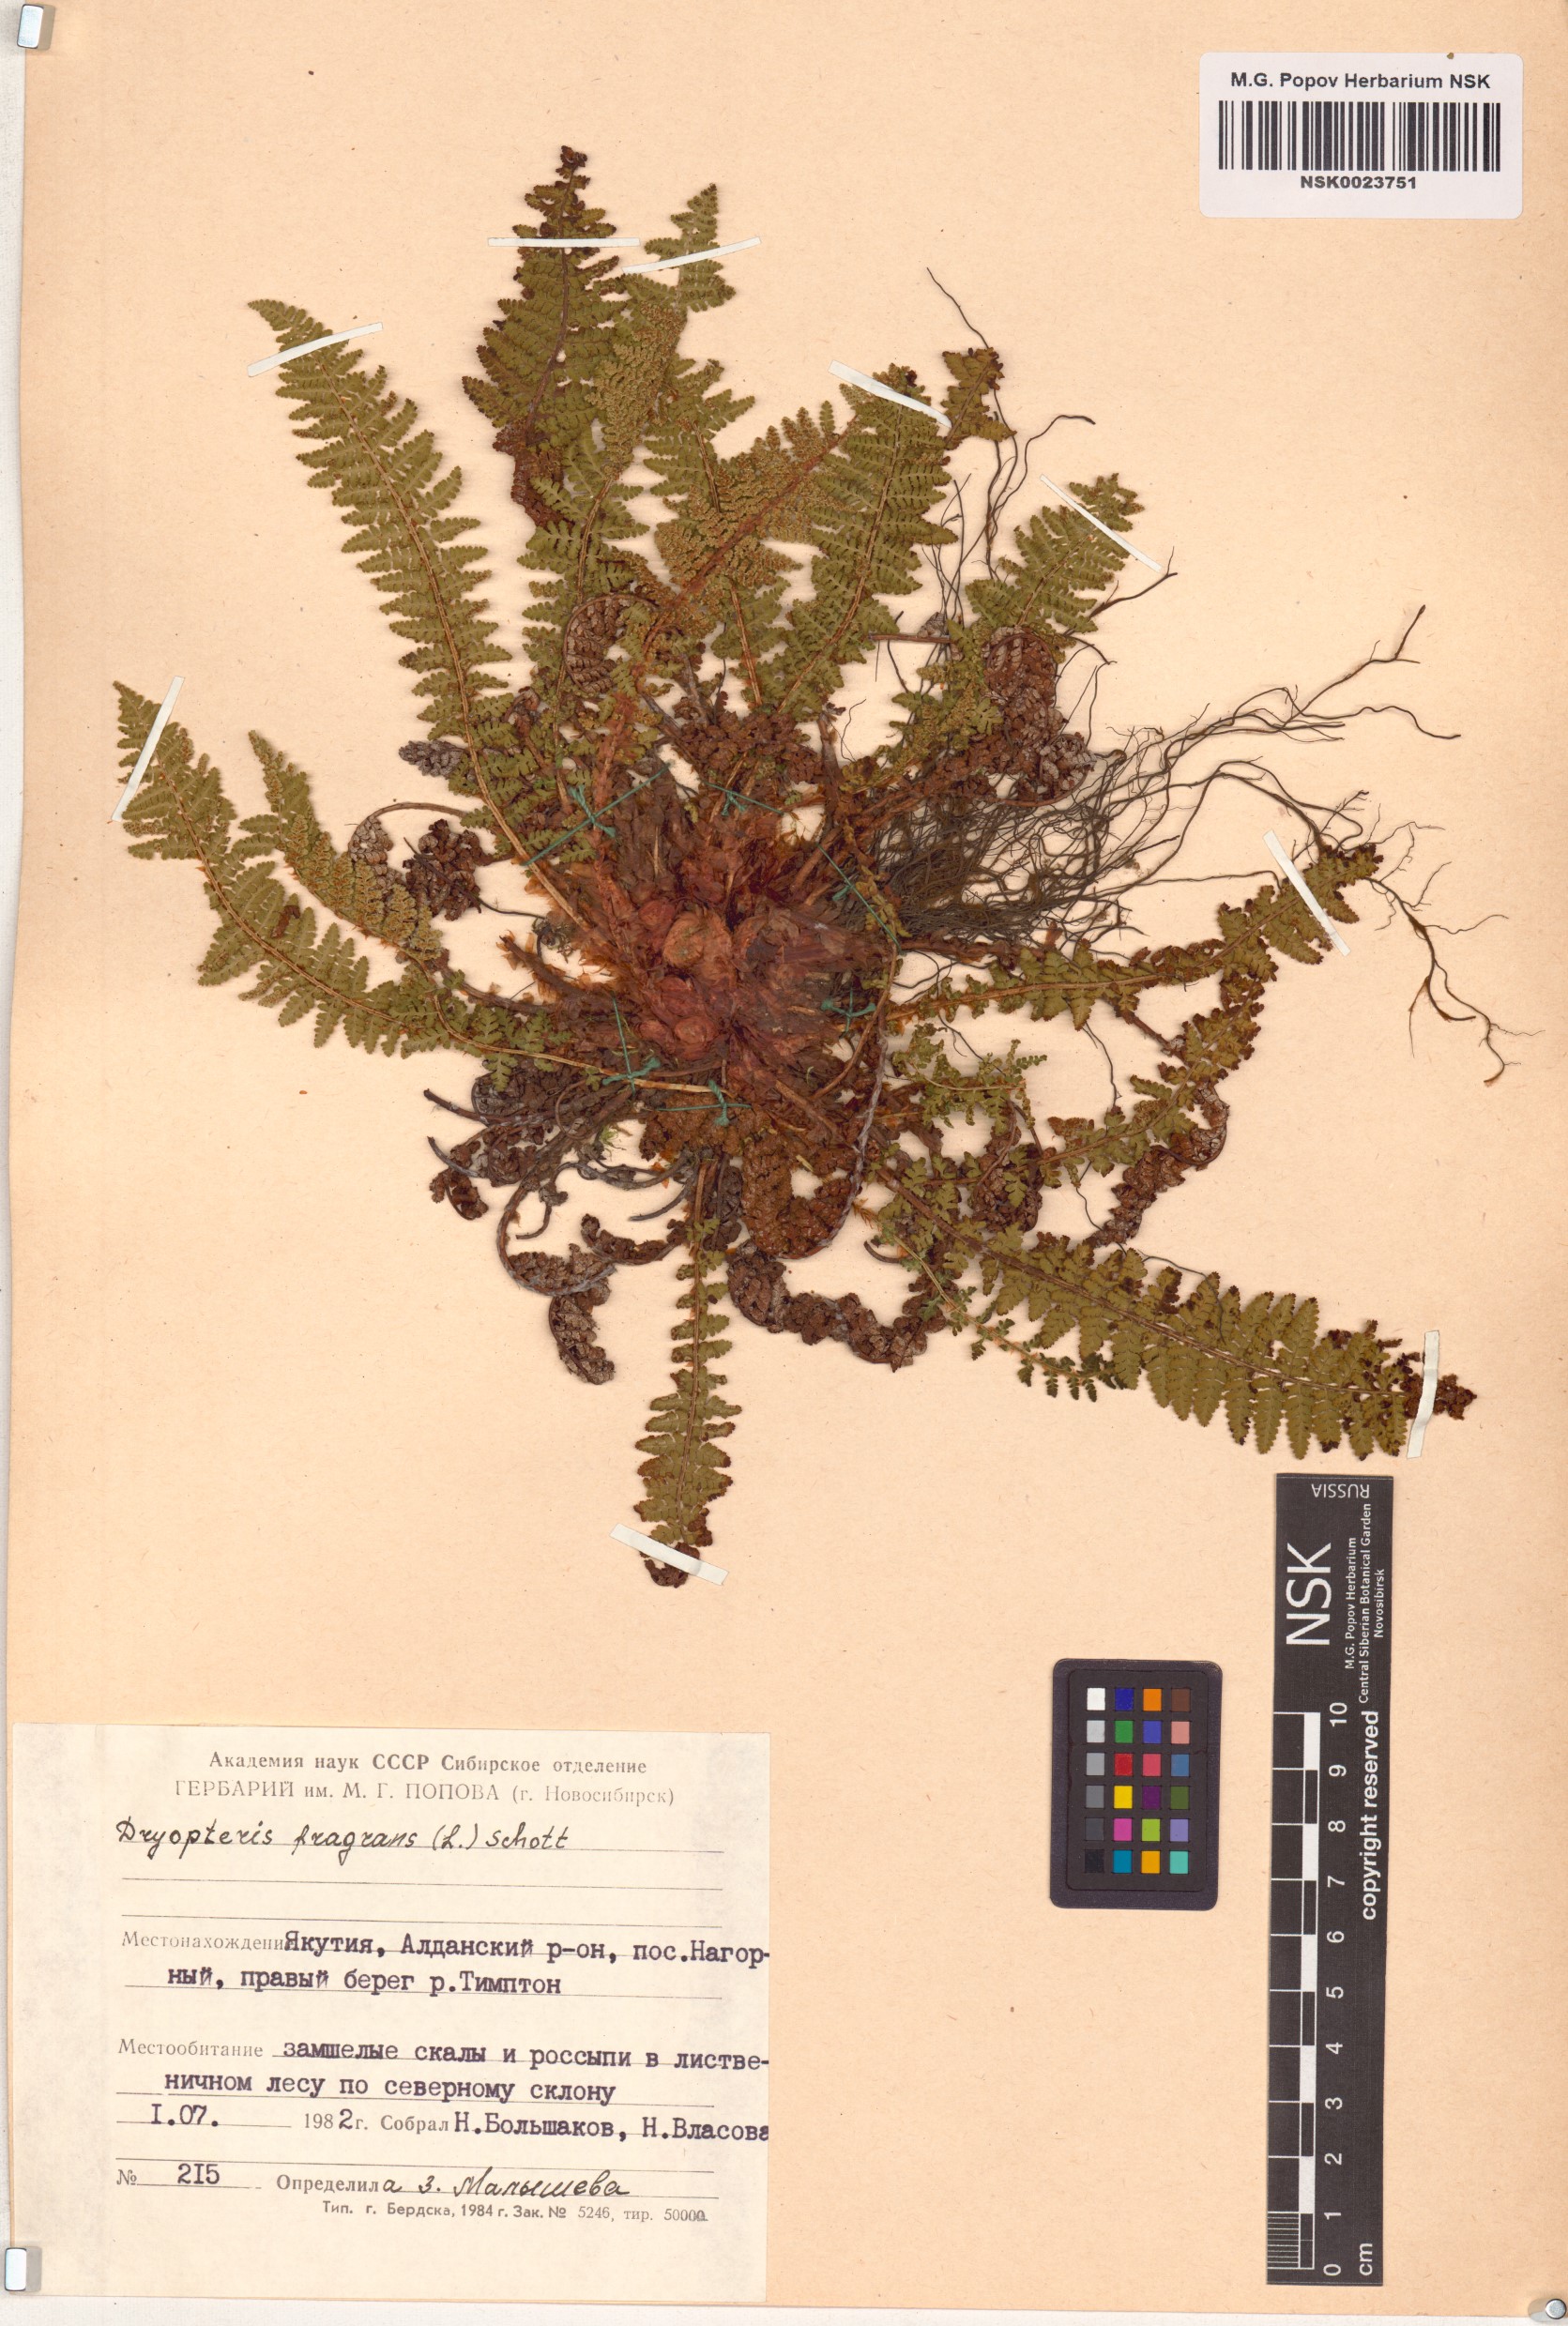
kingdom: Plantae
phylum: Tracheophyta
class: Polypodiopsida
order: Polypodiales
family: Dryopteridaceae
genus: Dryopteris
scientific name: Dryopteris fragrans
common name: Fragrant wood fern
